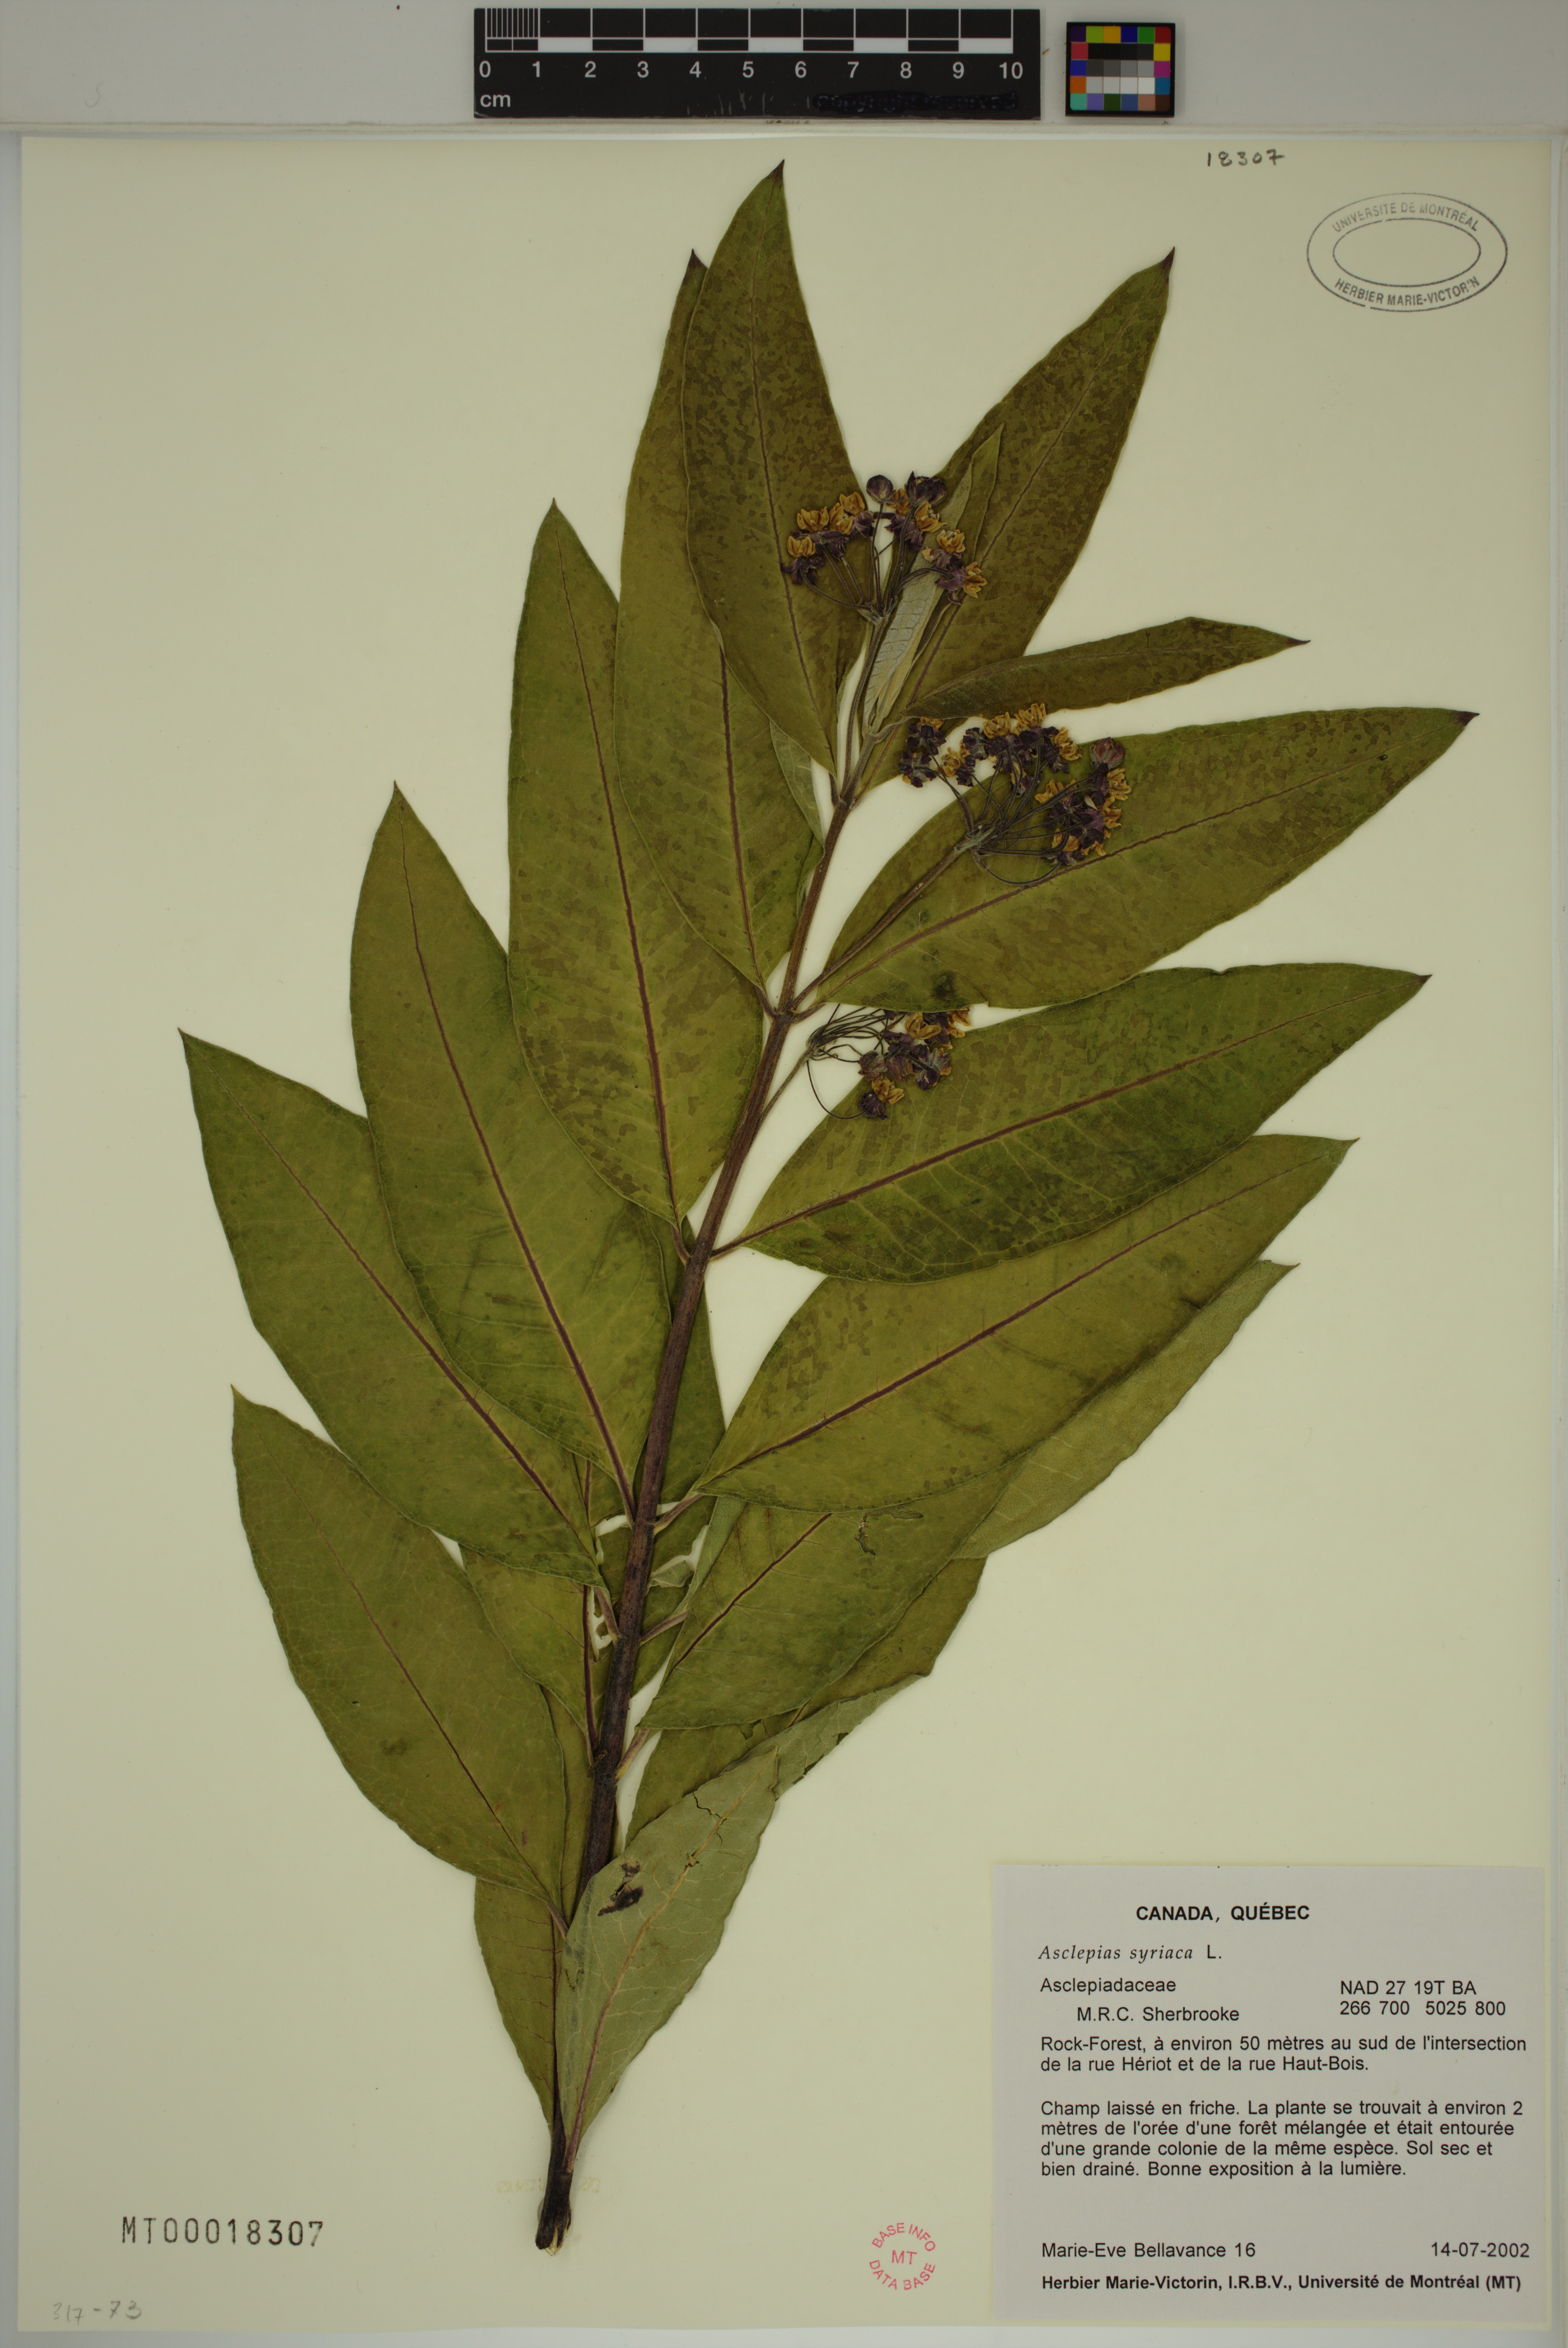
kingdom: Plantae
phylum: Tracheophyta
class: Magnoliopsida
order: Gentianales
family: Apocynaceae
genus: Asclepias
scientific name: Asclepias syriaca
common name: Common milkweed
